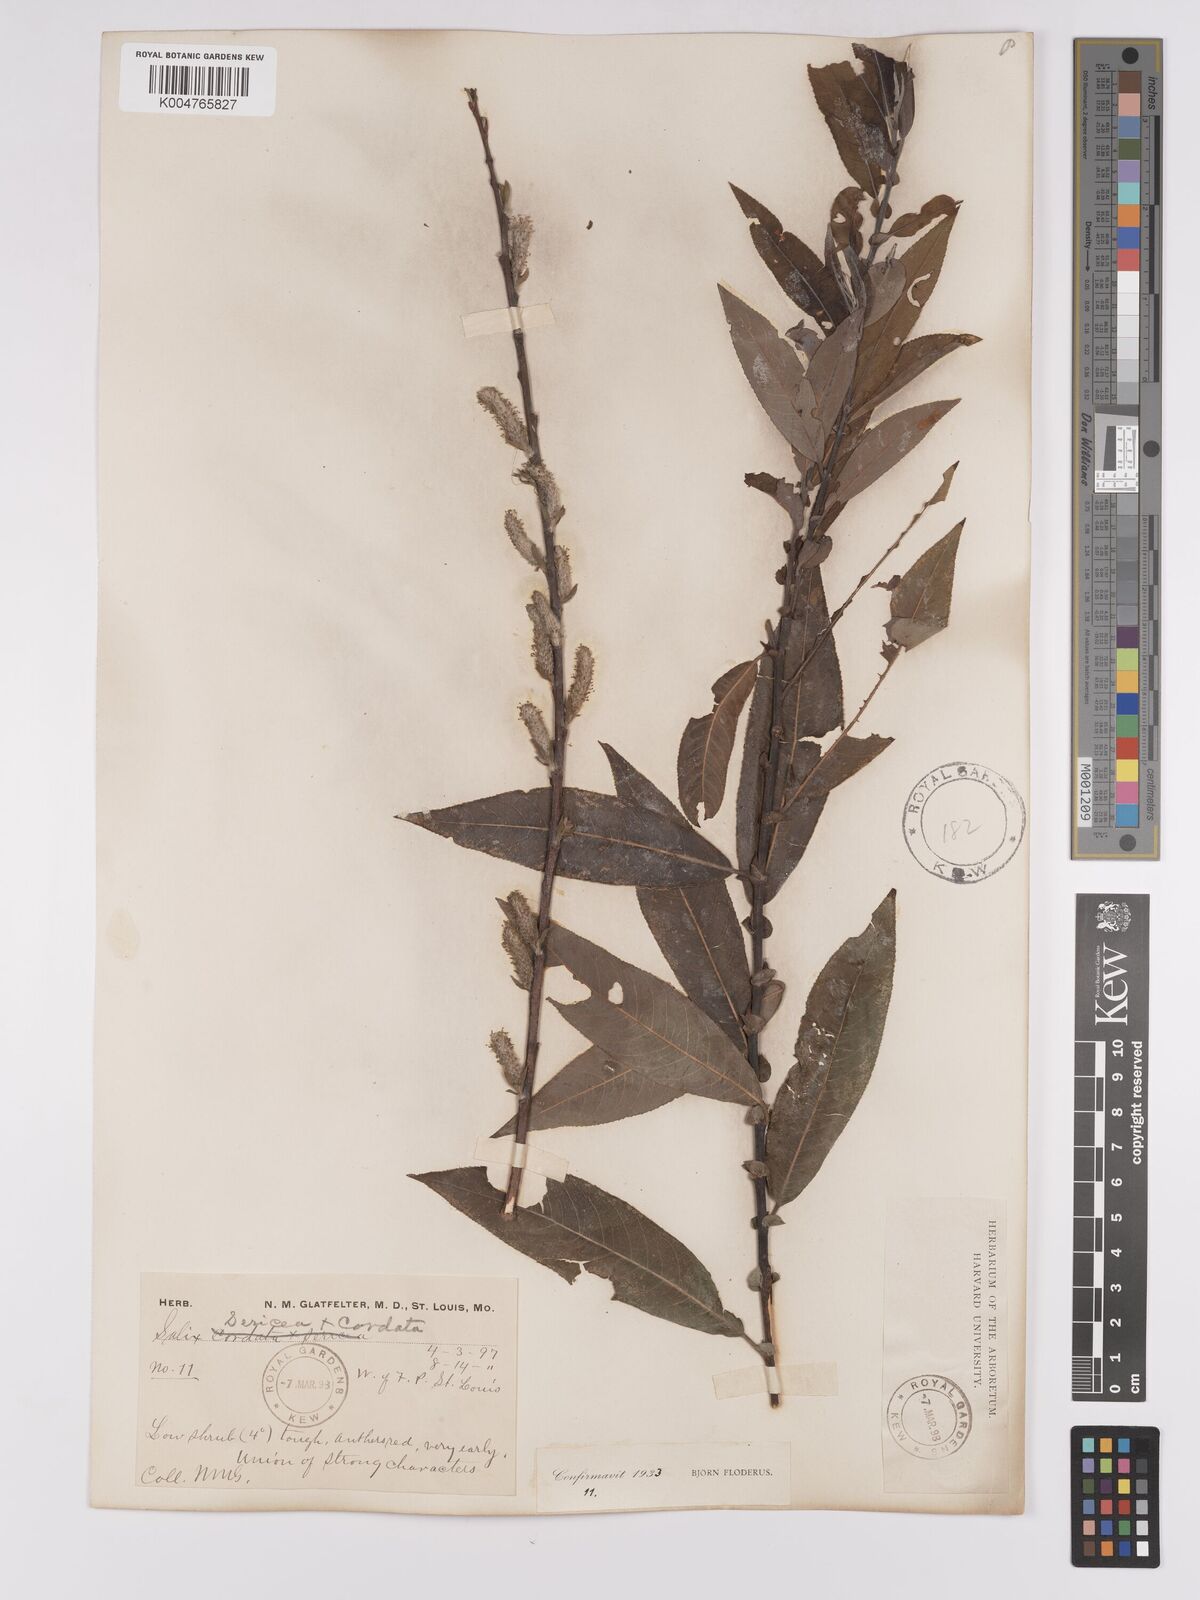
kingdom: Plantae
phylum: Tracheophyta
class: Magnoliopsida
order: Malpighiales
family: Salicaceae
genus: Salix
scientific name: Salix
